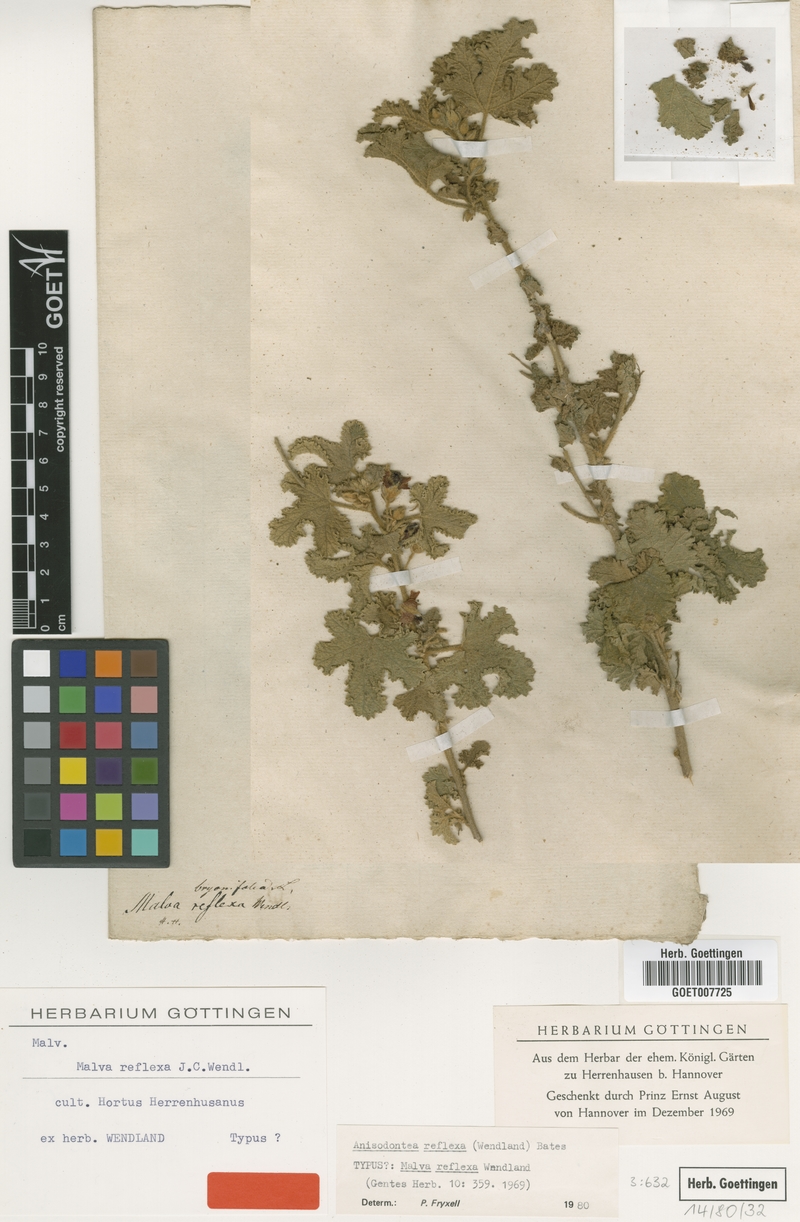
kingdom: Plantae
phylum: Tracheophyta
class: Magnoliopsida
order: Malvales
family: Malvaceae
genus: Anisodontea
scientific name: Anisodontea reflexa
